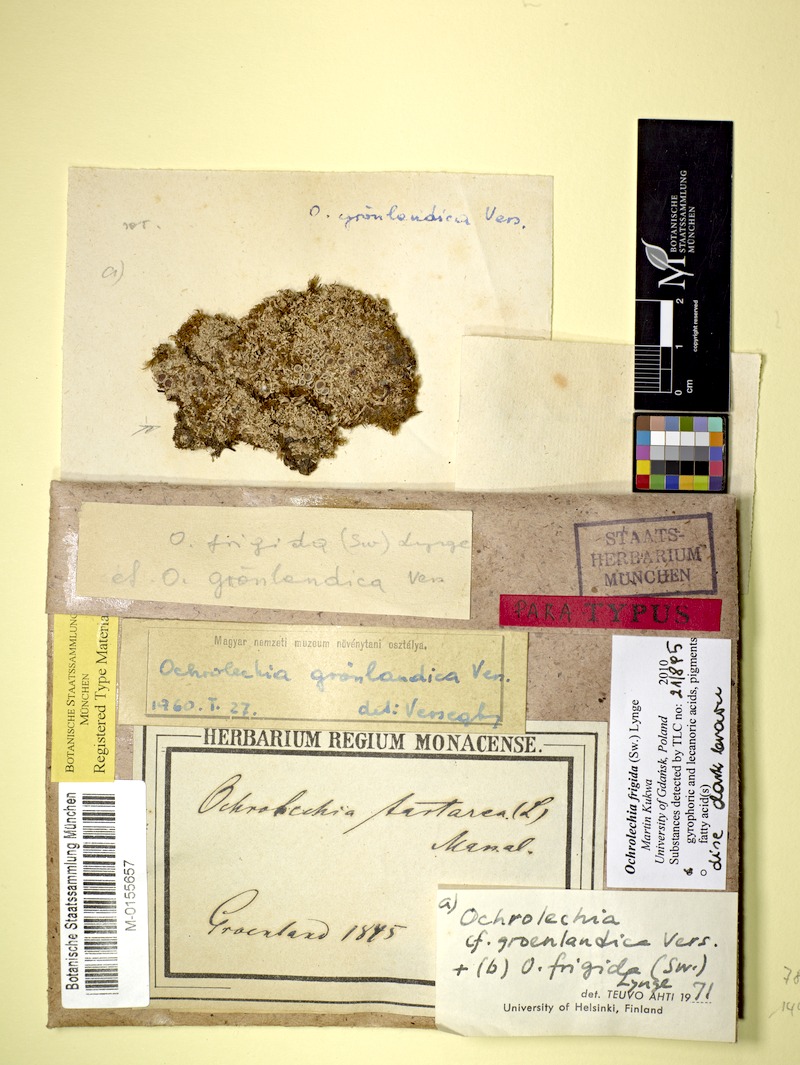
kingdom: Fungi
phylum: Ascomycota
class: Lecanoromycetes
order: Pertusariales
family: Ochrolechiaceae
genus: Ochrolechia
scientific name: Ochrolechia frigida
